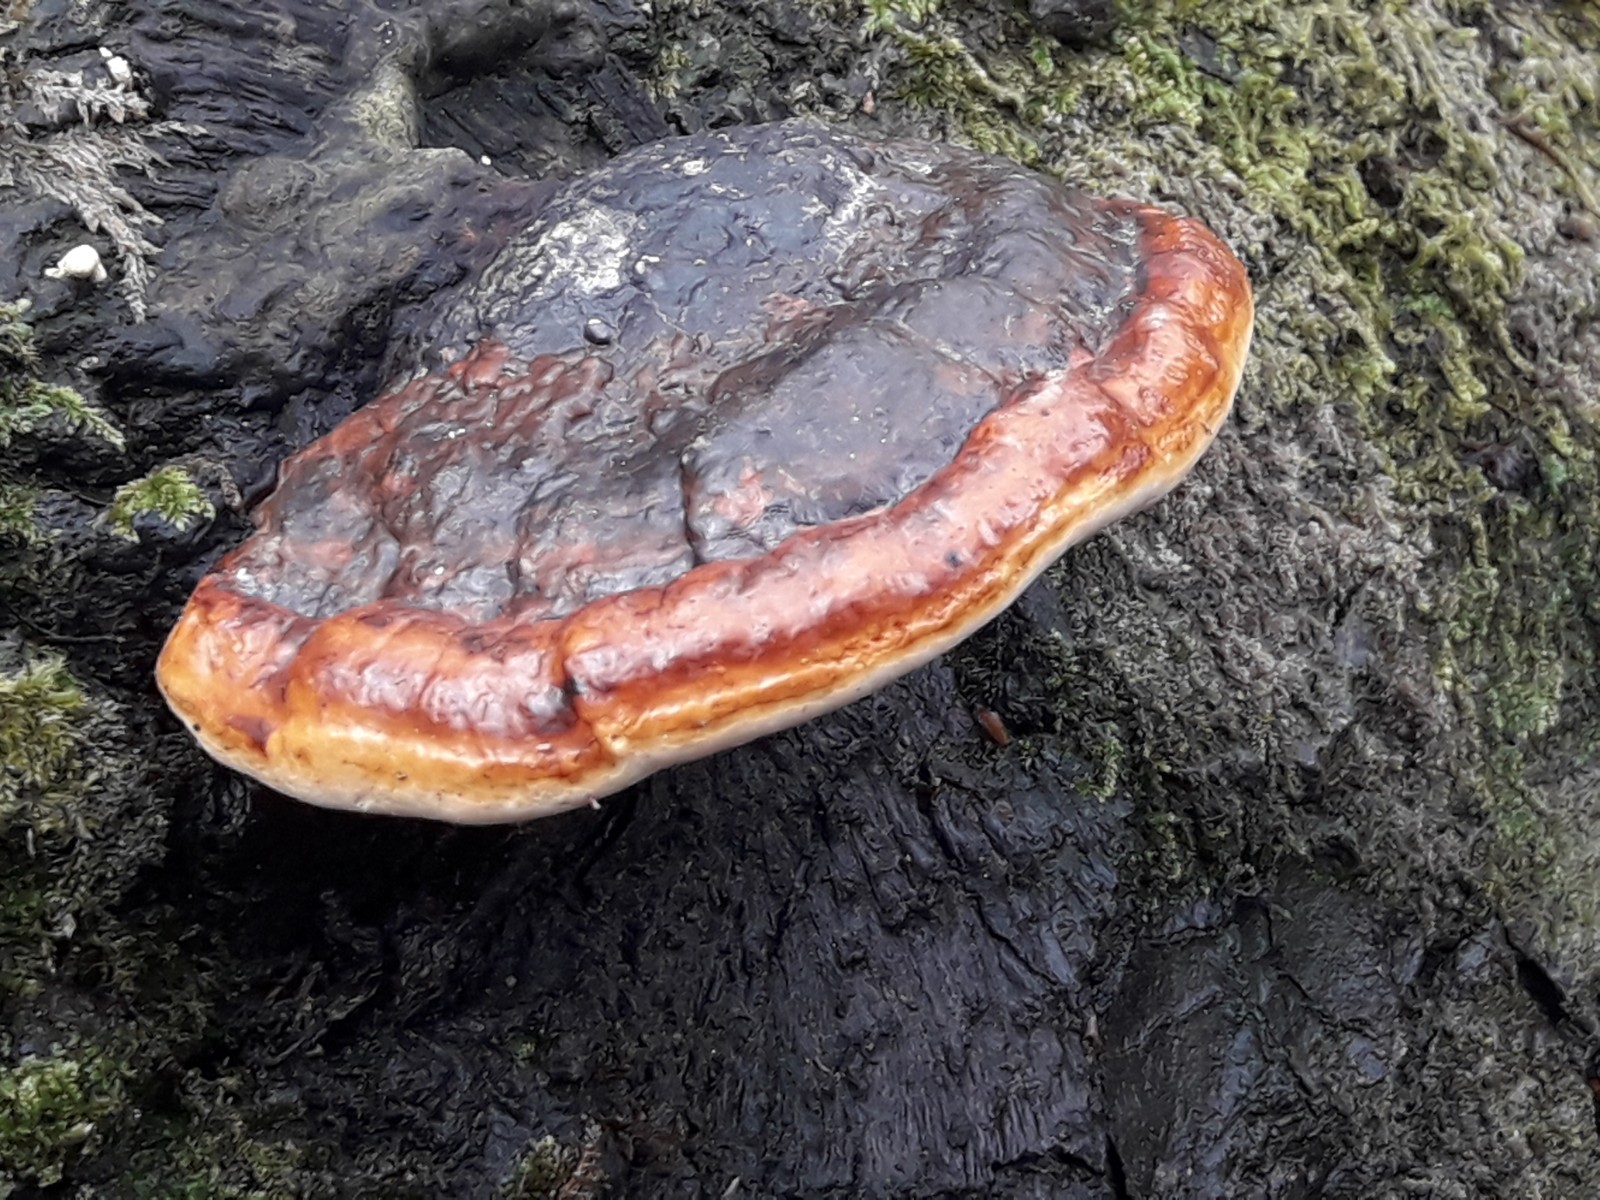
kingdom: Fungi
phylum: Basidiomycota
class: Agaricomycetes
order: Polyporales
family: Fomitopsidaceae
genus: Fomitopsis
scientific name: Fomitopsis pinicola
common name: randbæltet hovporesvamp
